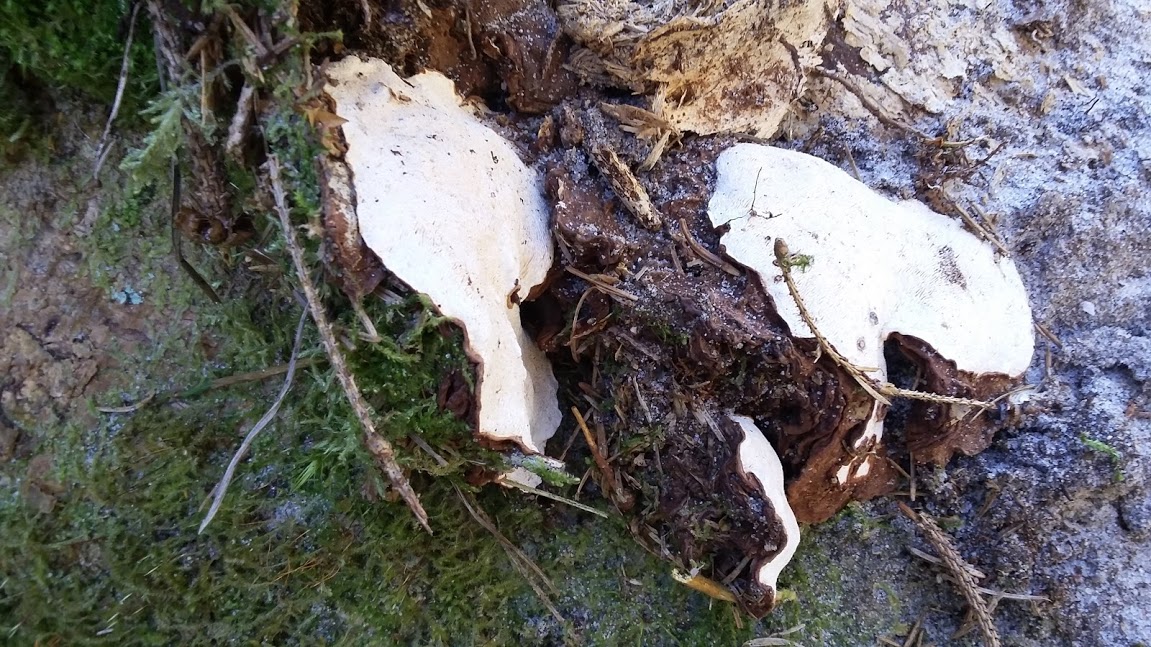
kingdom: Fungi
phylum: Basidiomycota
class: Agaricomycetes
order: Russulales
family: Bondarzewiaceae
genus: Heterobasidion
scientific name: Heterobasidion
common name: rodfordærver
